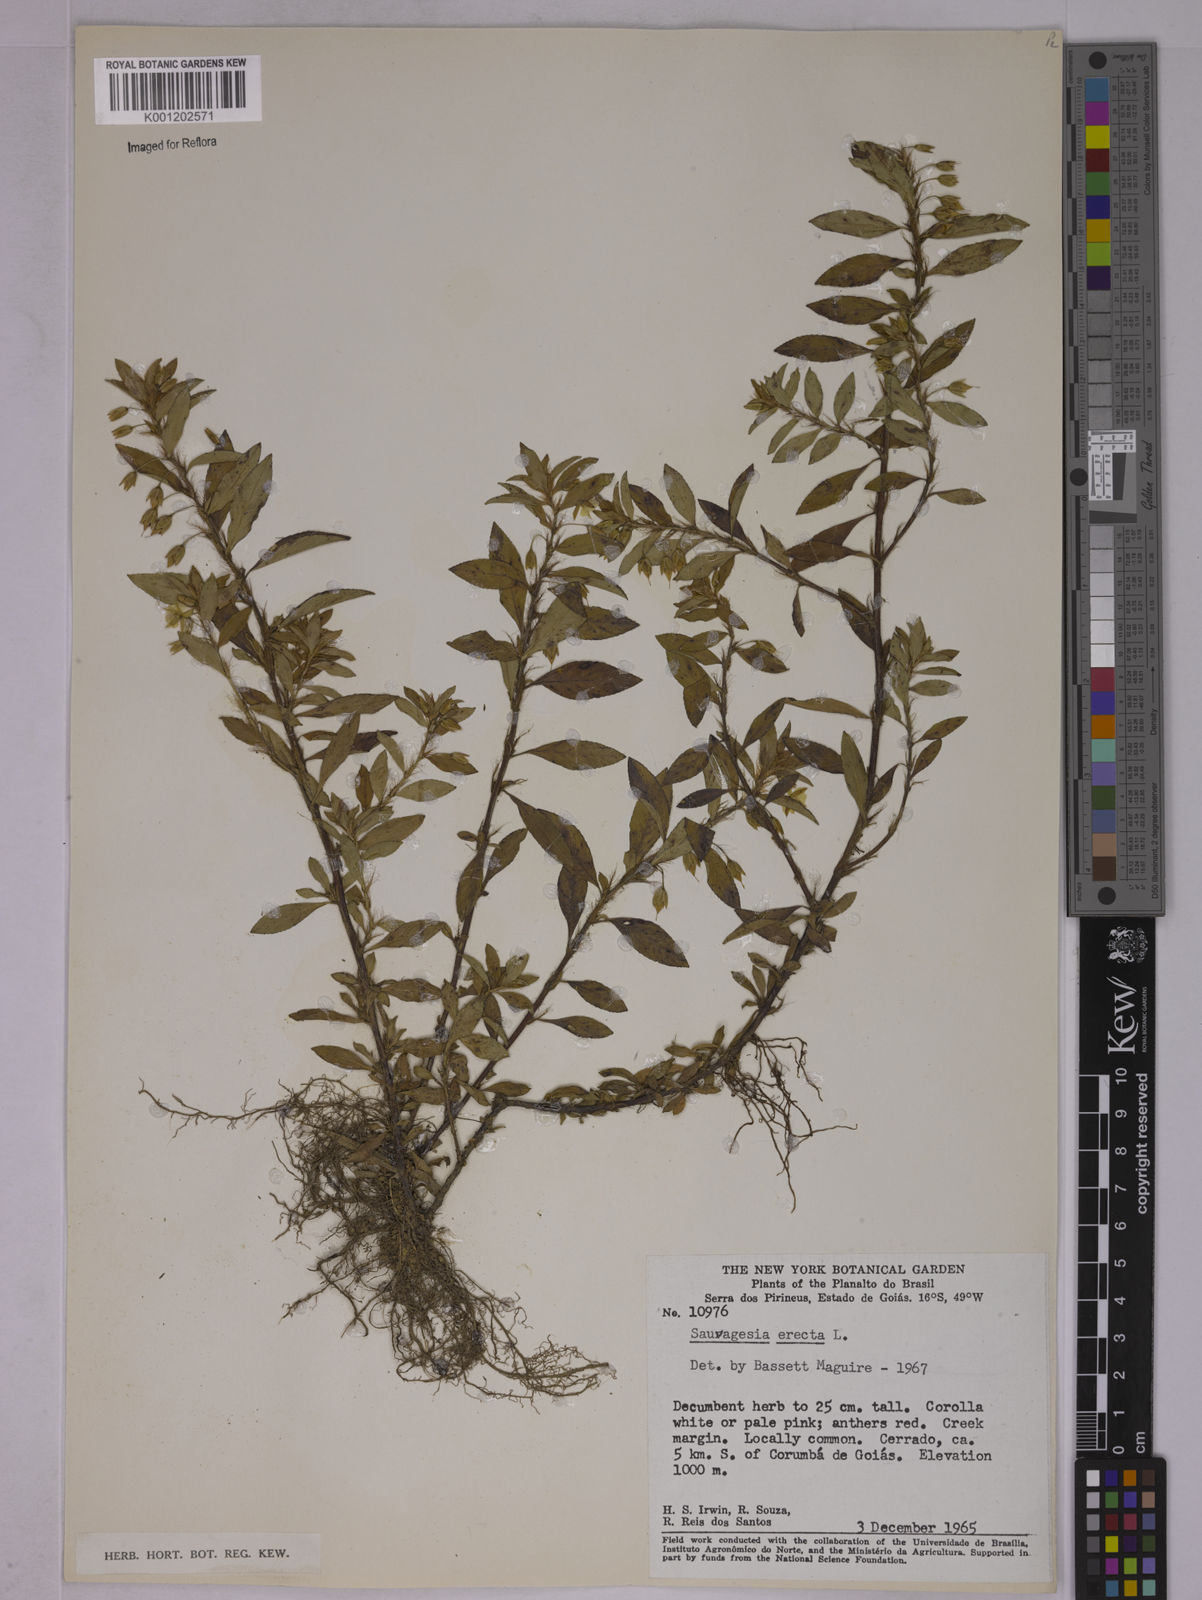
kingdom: Plantae
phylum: Tracheophyta
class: Magnoliopsida
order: Malpighiales
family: Ochnaceae
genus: Sauvagesia
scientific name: Sauvagesia erecta
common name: Creole tea
